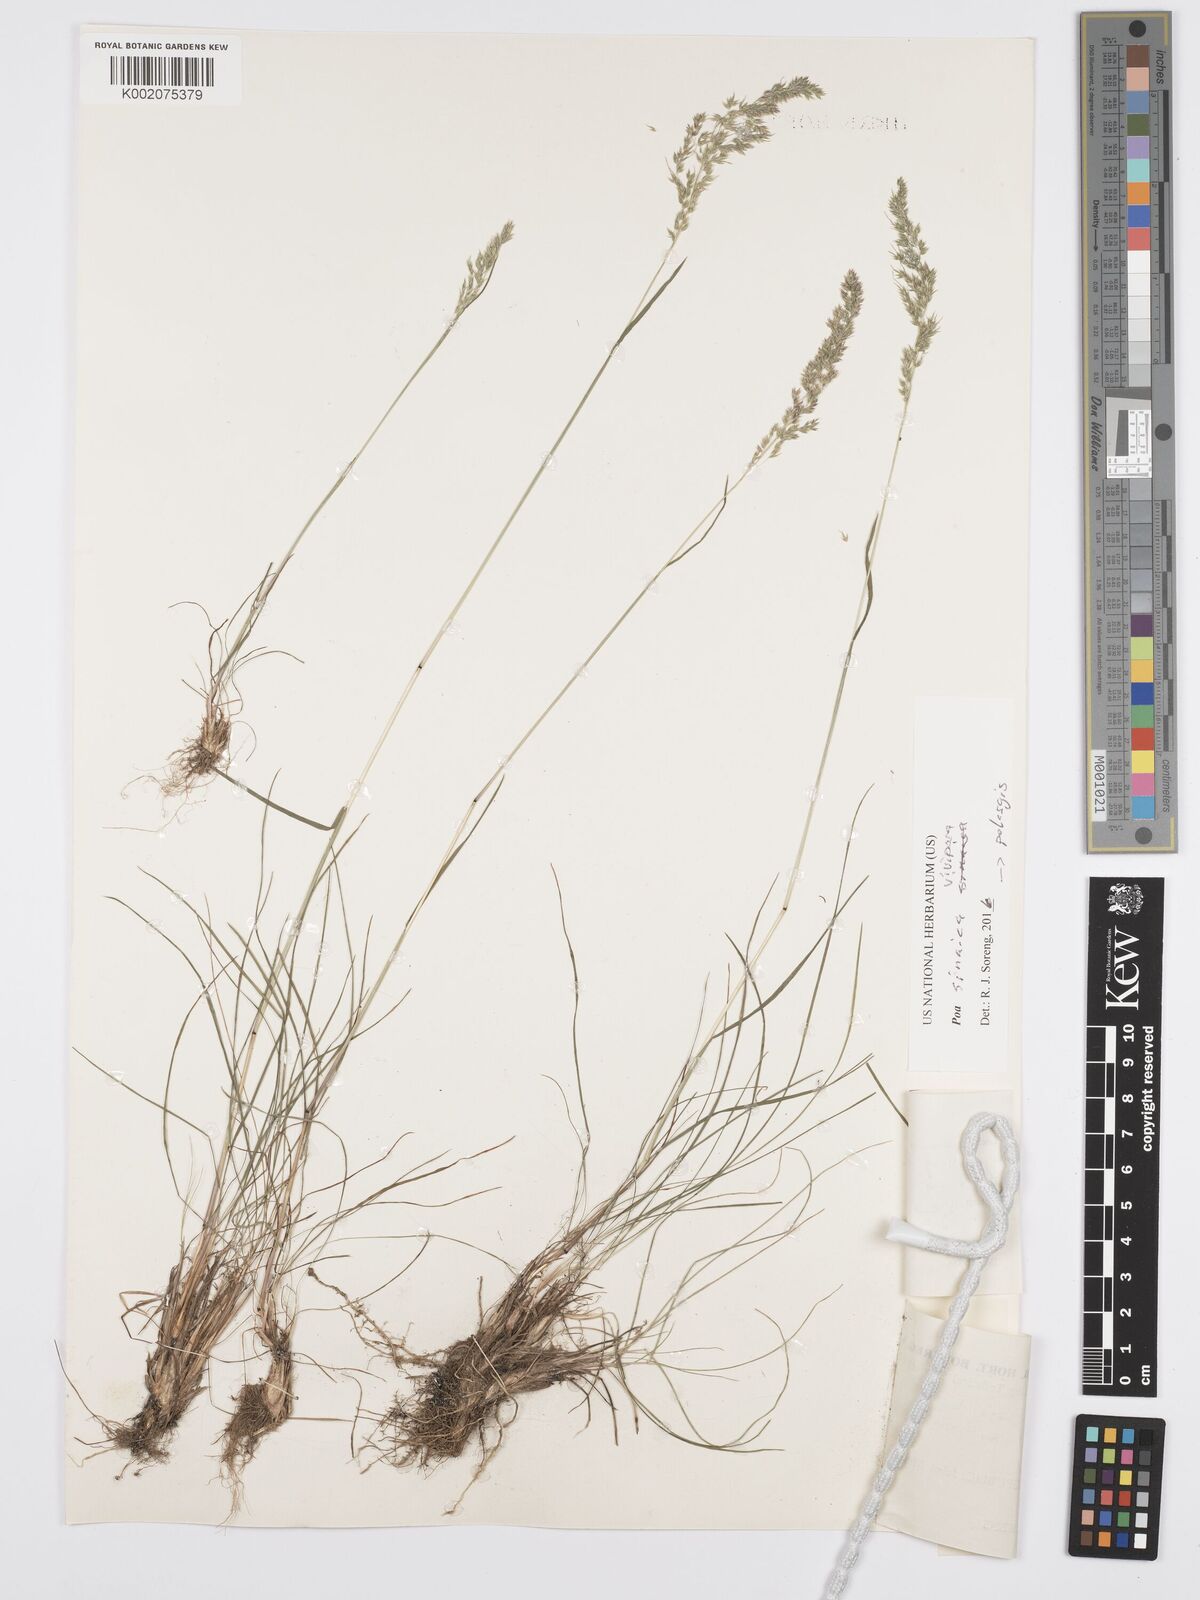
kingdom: Plantae
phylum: Tracheophyta
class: Liliopsida
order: Poales
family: Poaceae
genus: Poa
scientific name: Poa sinaica
